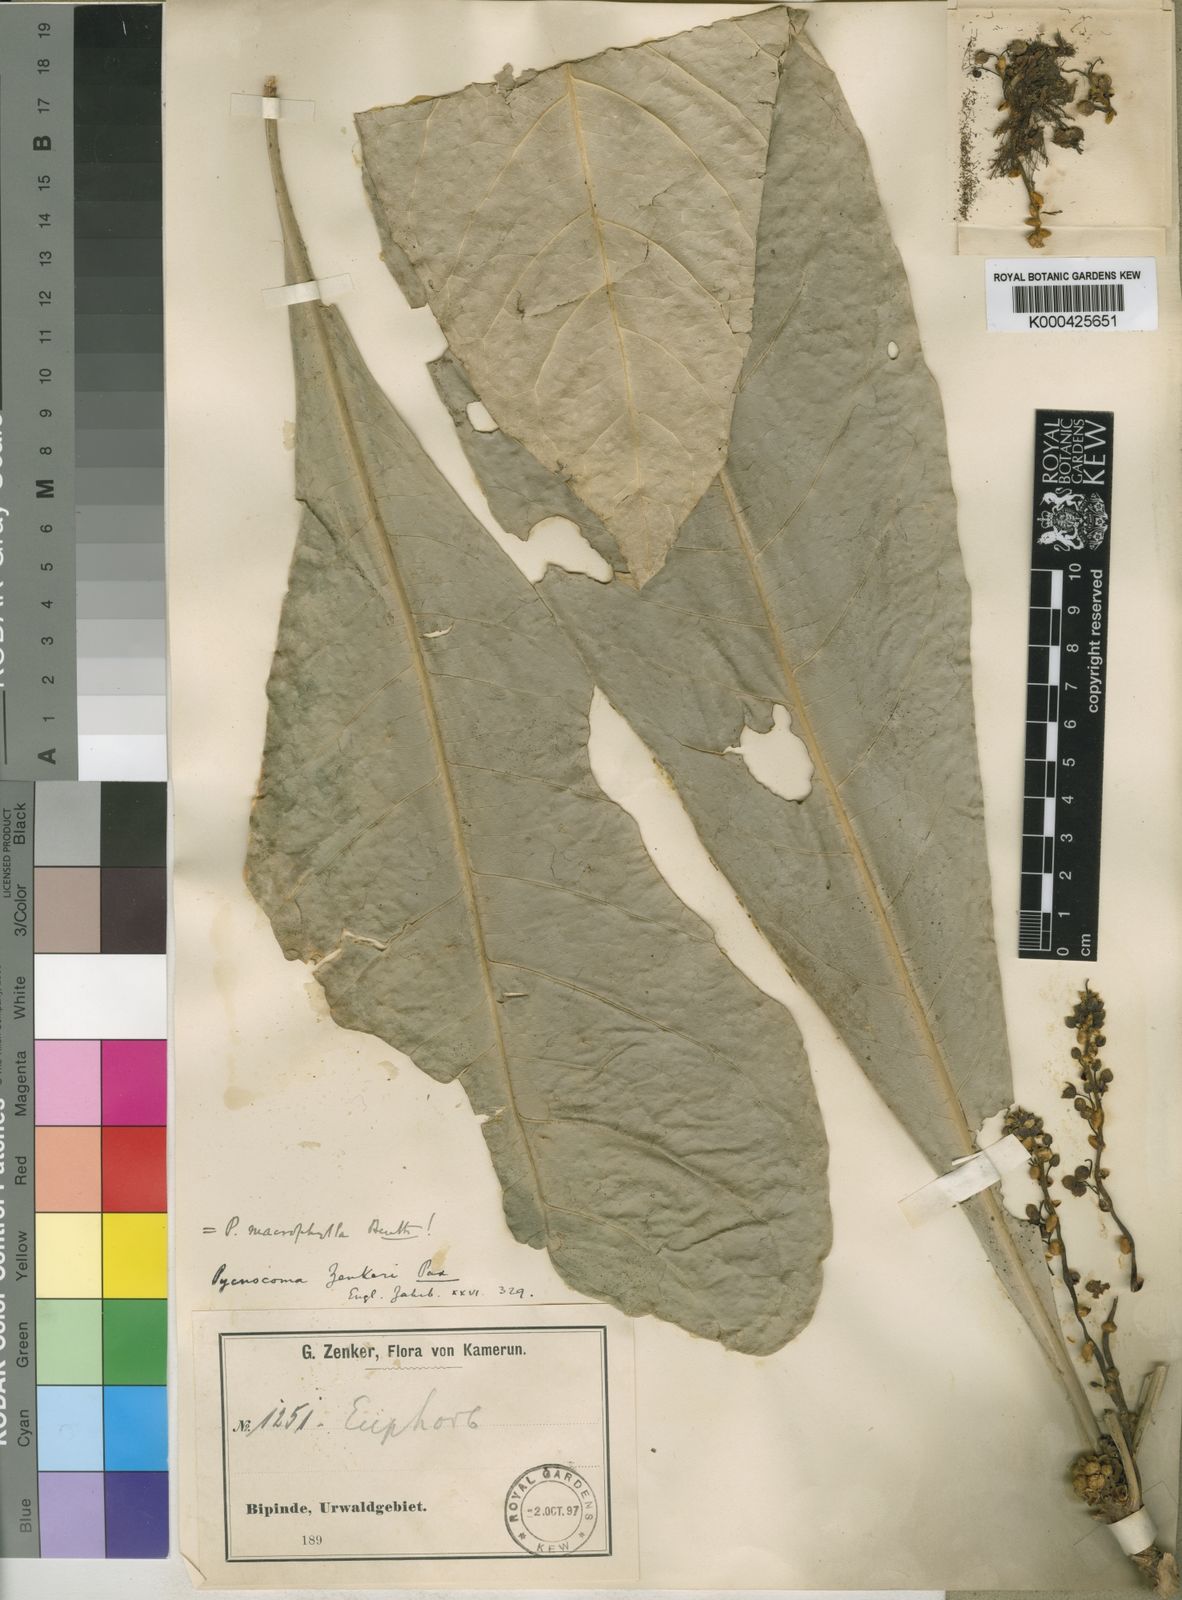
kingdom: Plantae
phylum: Tracheophyta
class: Magnoliopsida
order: Malpighiales
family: Euphorbiaceae
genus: Pycnocoma
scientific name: Pycnocoma macrophylla
